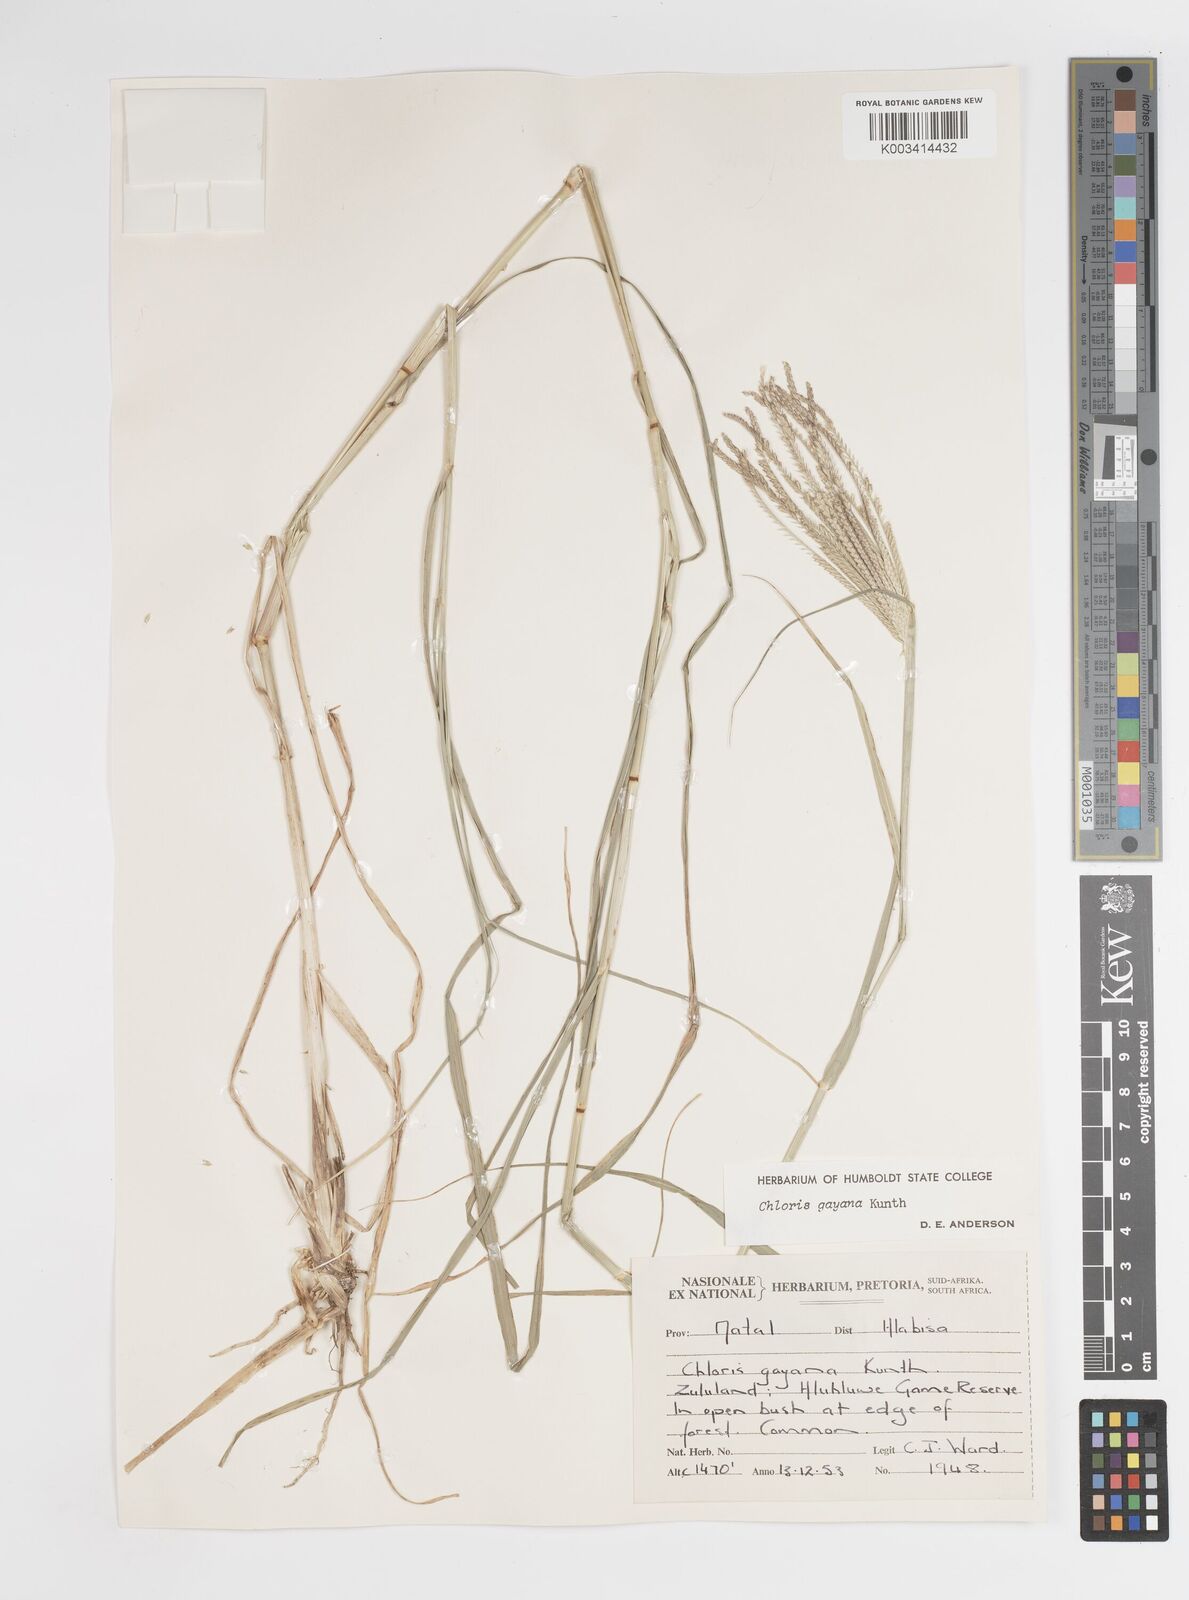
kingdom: Plantae
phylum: Tracheophyta
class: Liliopsida
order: Poales
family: Poaceae
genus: Chloris
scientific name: Chloris gayana
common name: Rhodes grass
